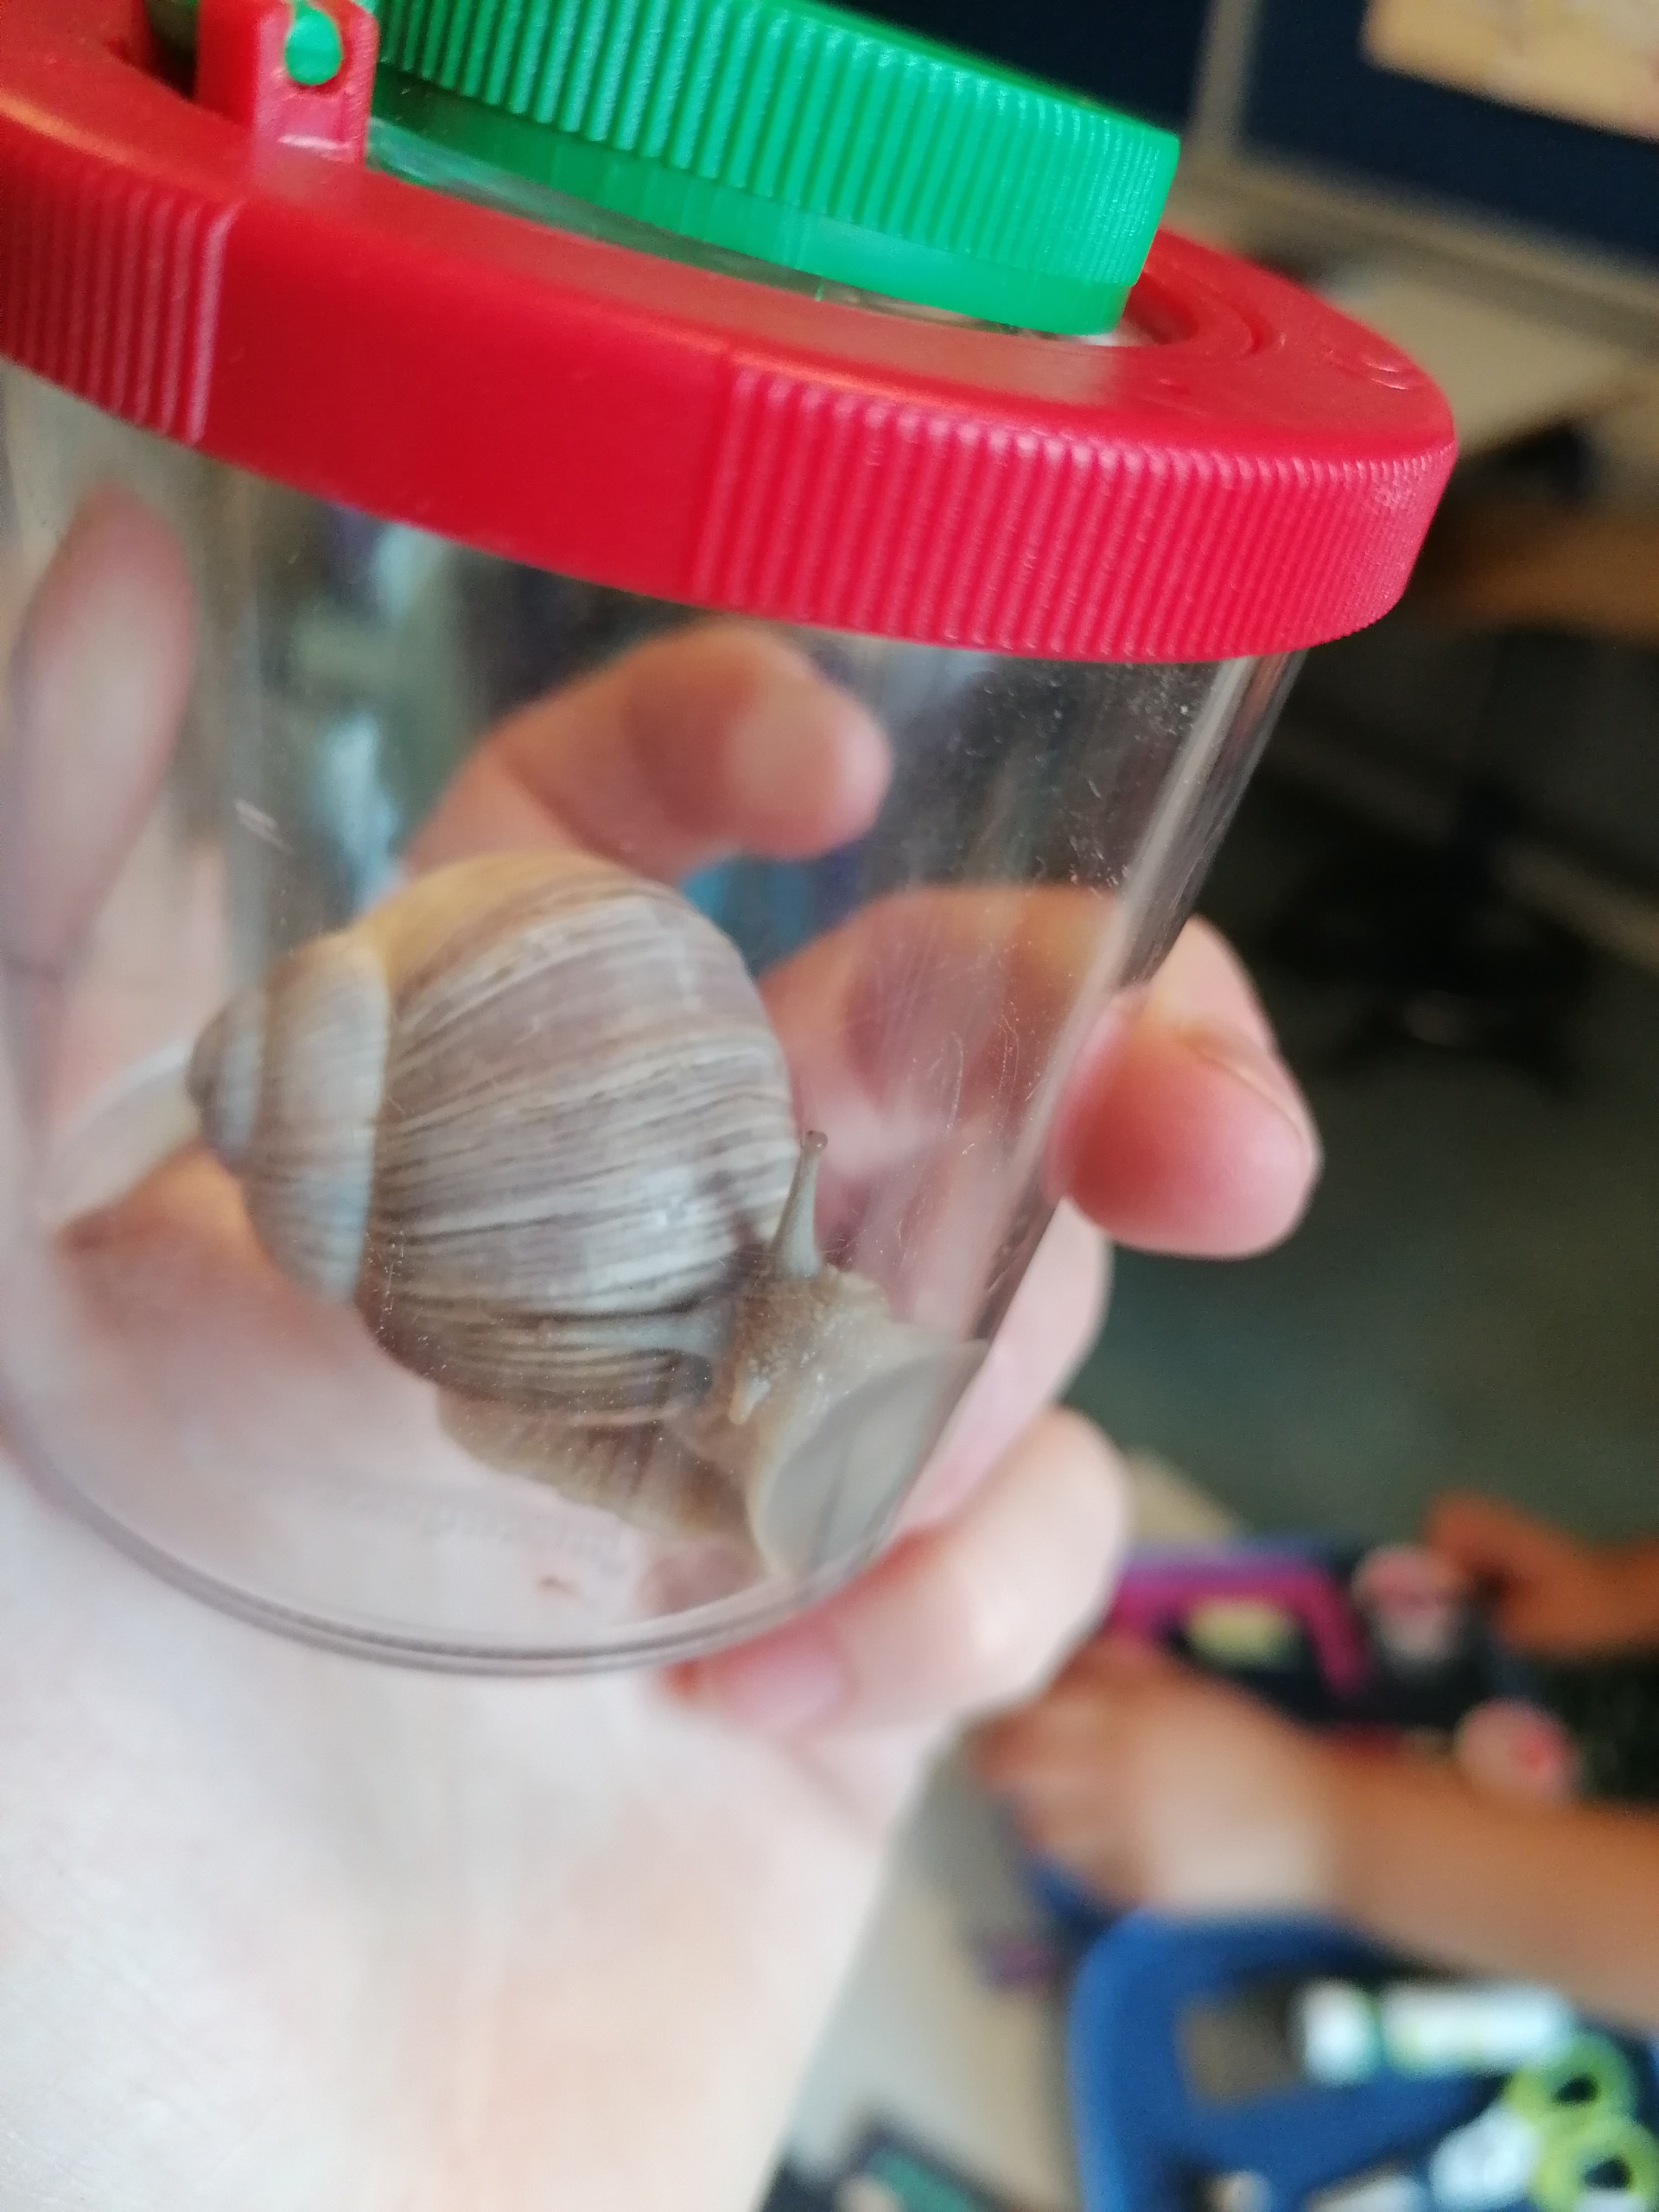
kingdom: Animalia
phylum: Mollusca
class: Gastropoda
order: Stylommatophora
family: Helicidae
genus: Helix
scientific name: Helix pomatia
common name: Vinbjergsnegl
